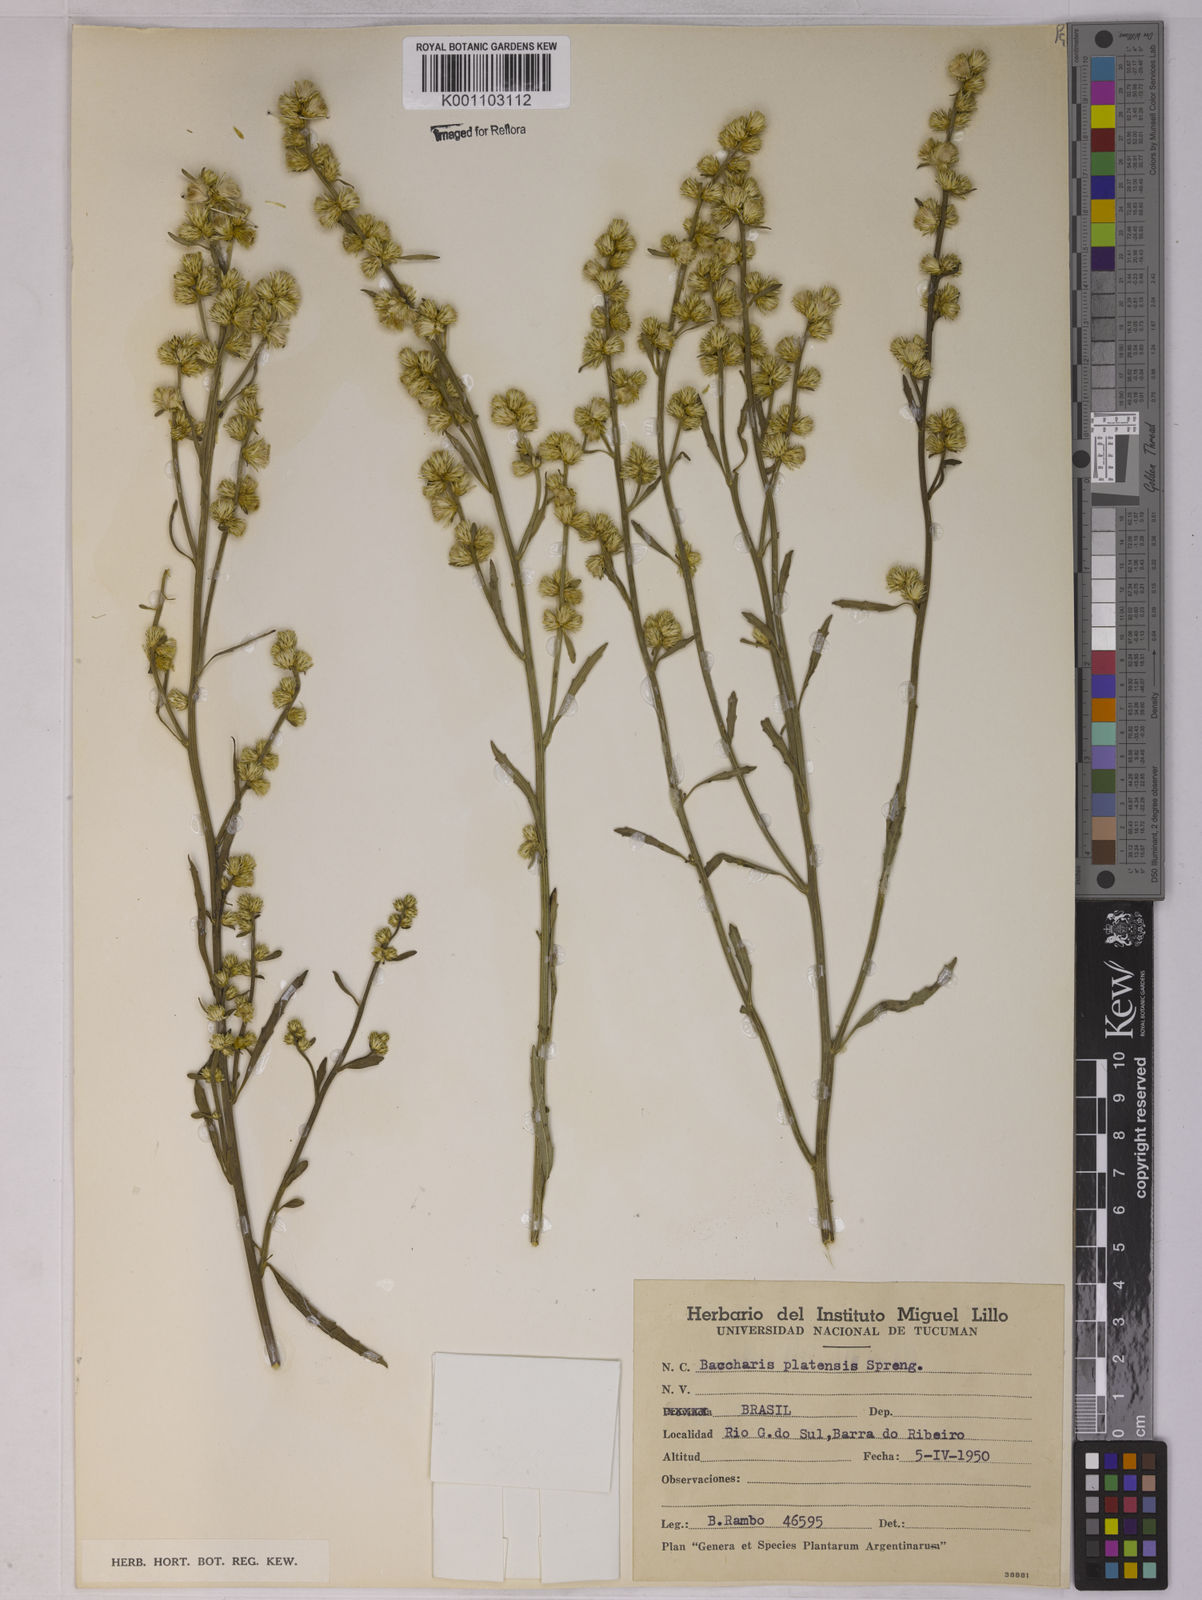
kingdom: Plantae
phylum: Tracheophyta
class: Magnoliopsida
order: Asterales
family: Asteraceae
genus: Baccharis
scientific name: Baccharis spicata
